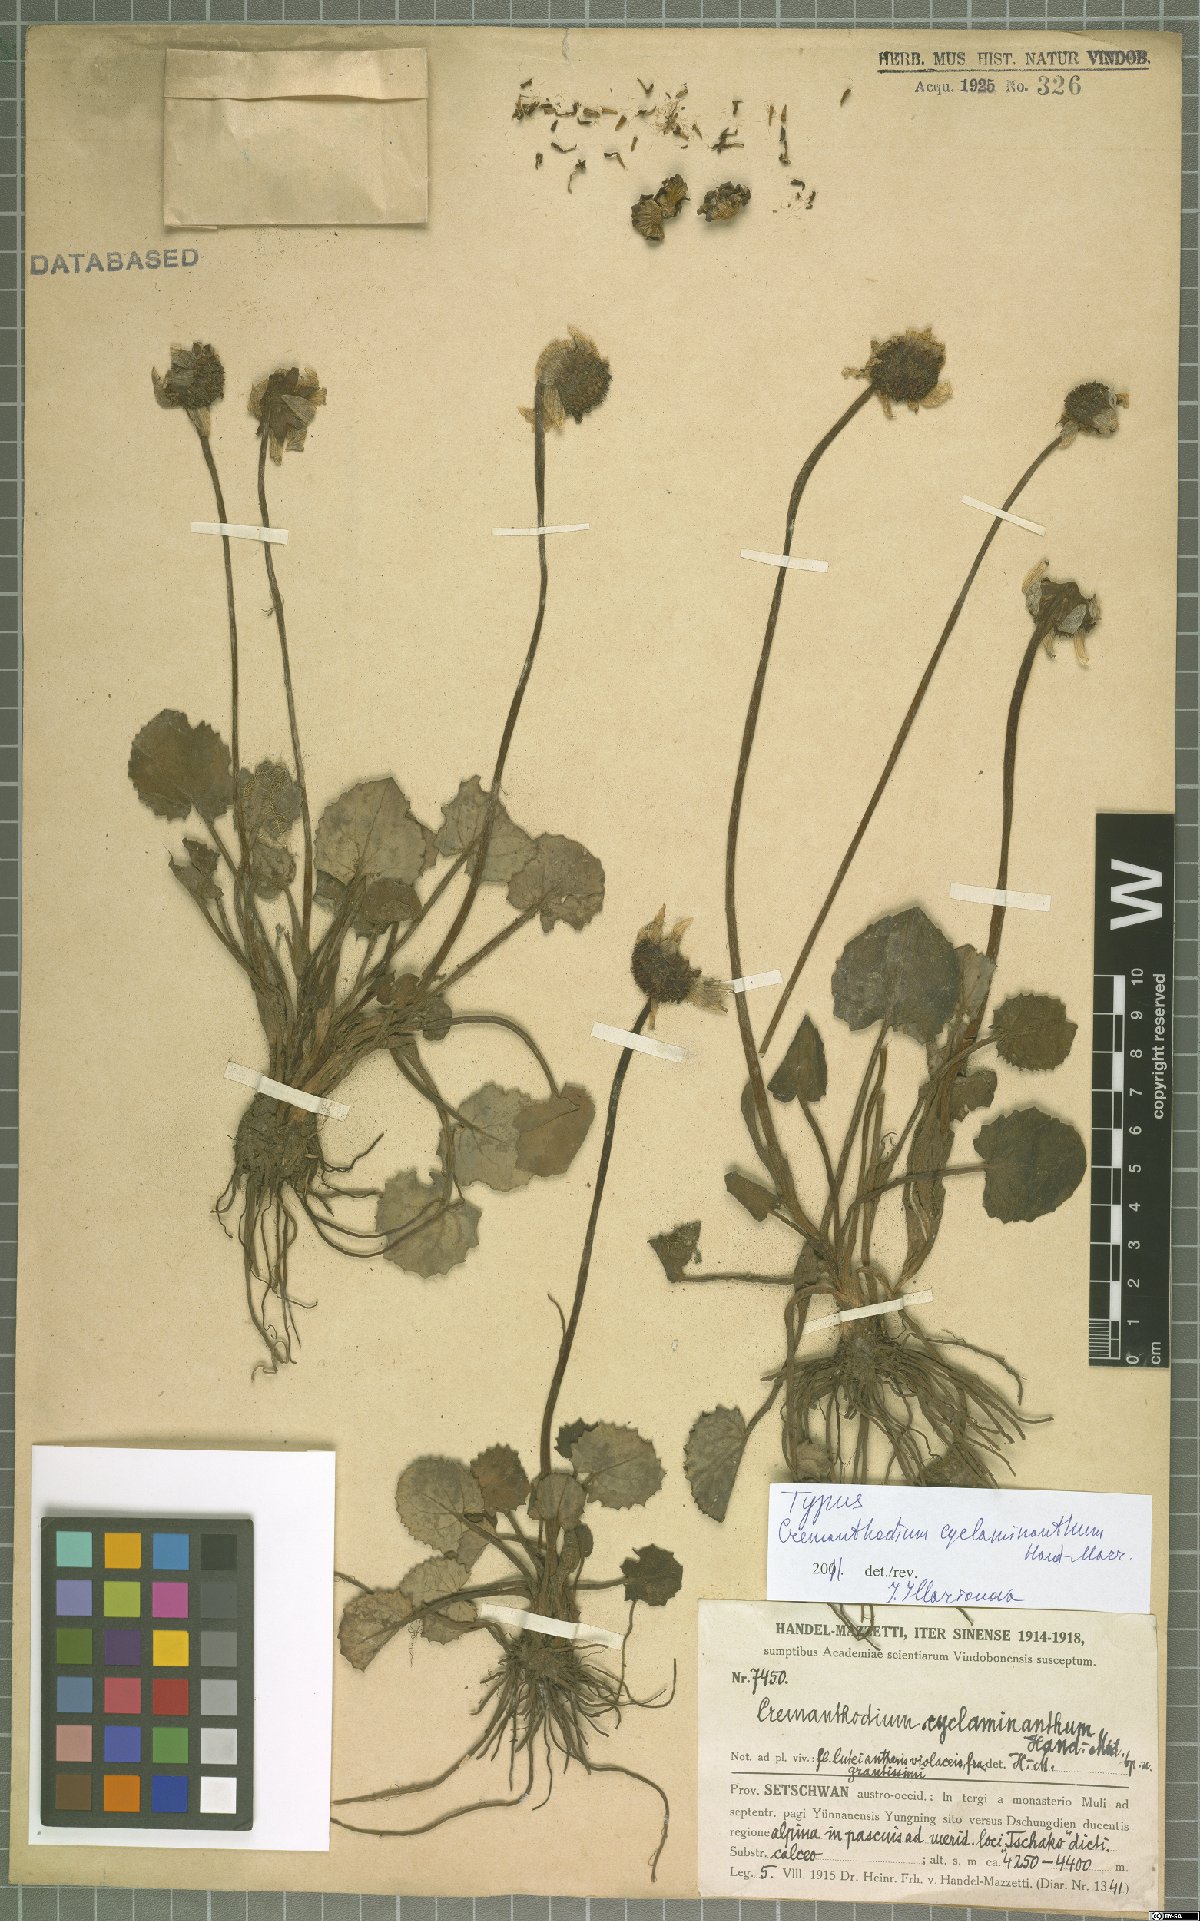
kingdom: Plantae
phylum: Tracheophyta
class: Magnoliopsida
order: Asterales
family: Asteraceae
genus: Cremanthodium
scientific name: Cremanthodium cyclaminanthum
